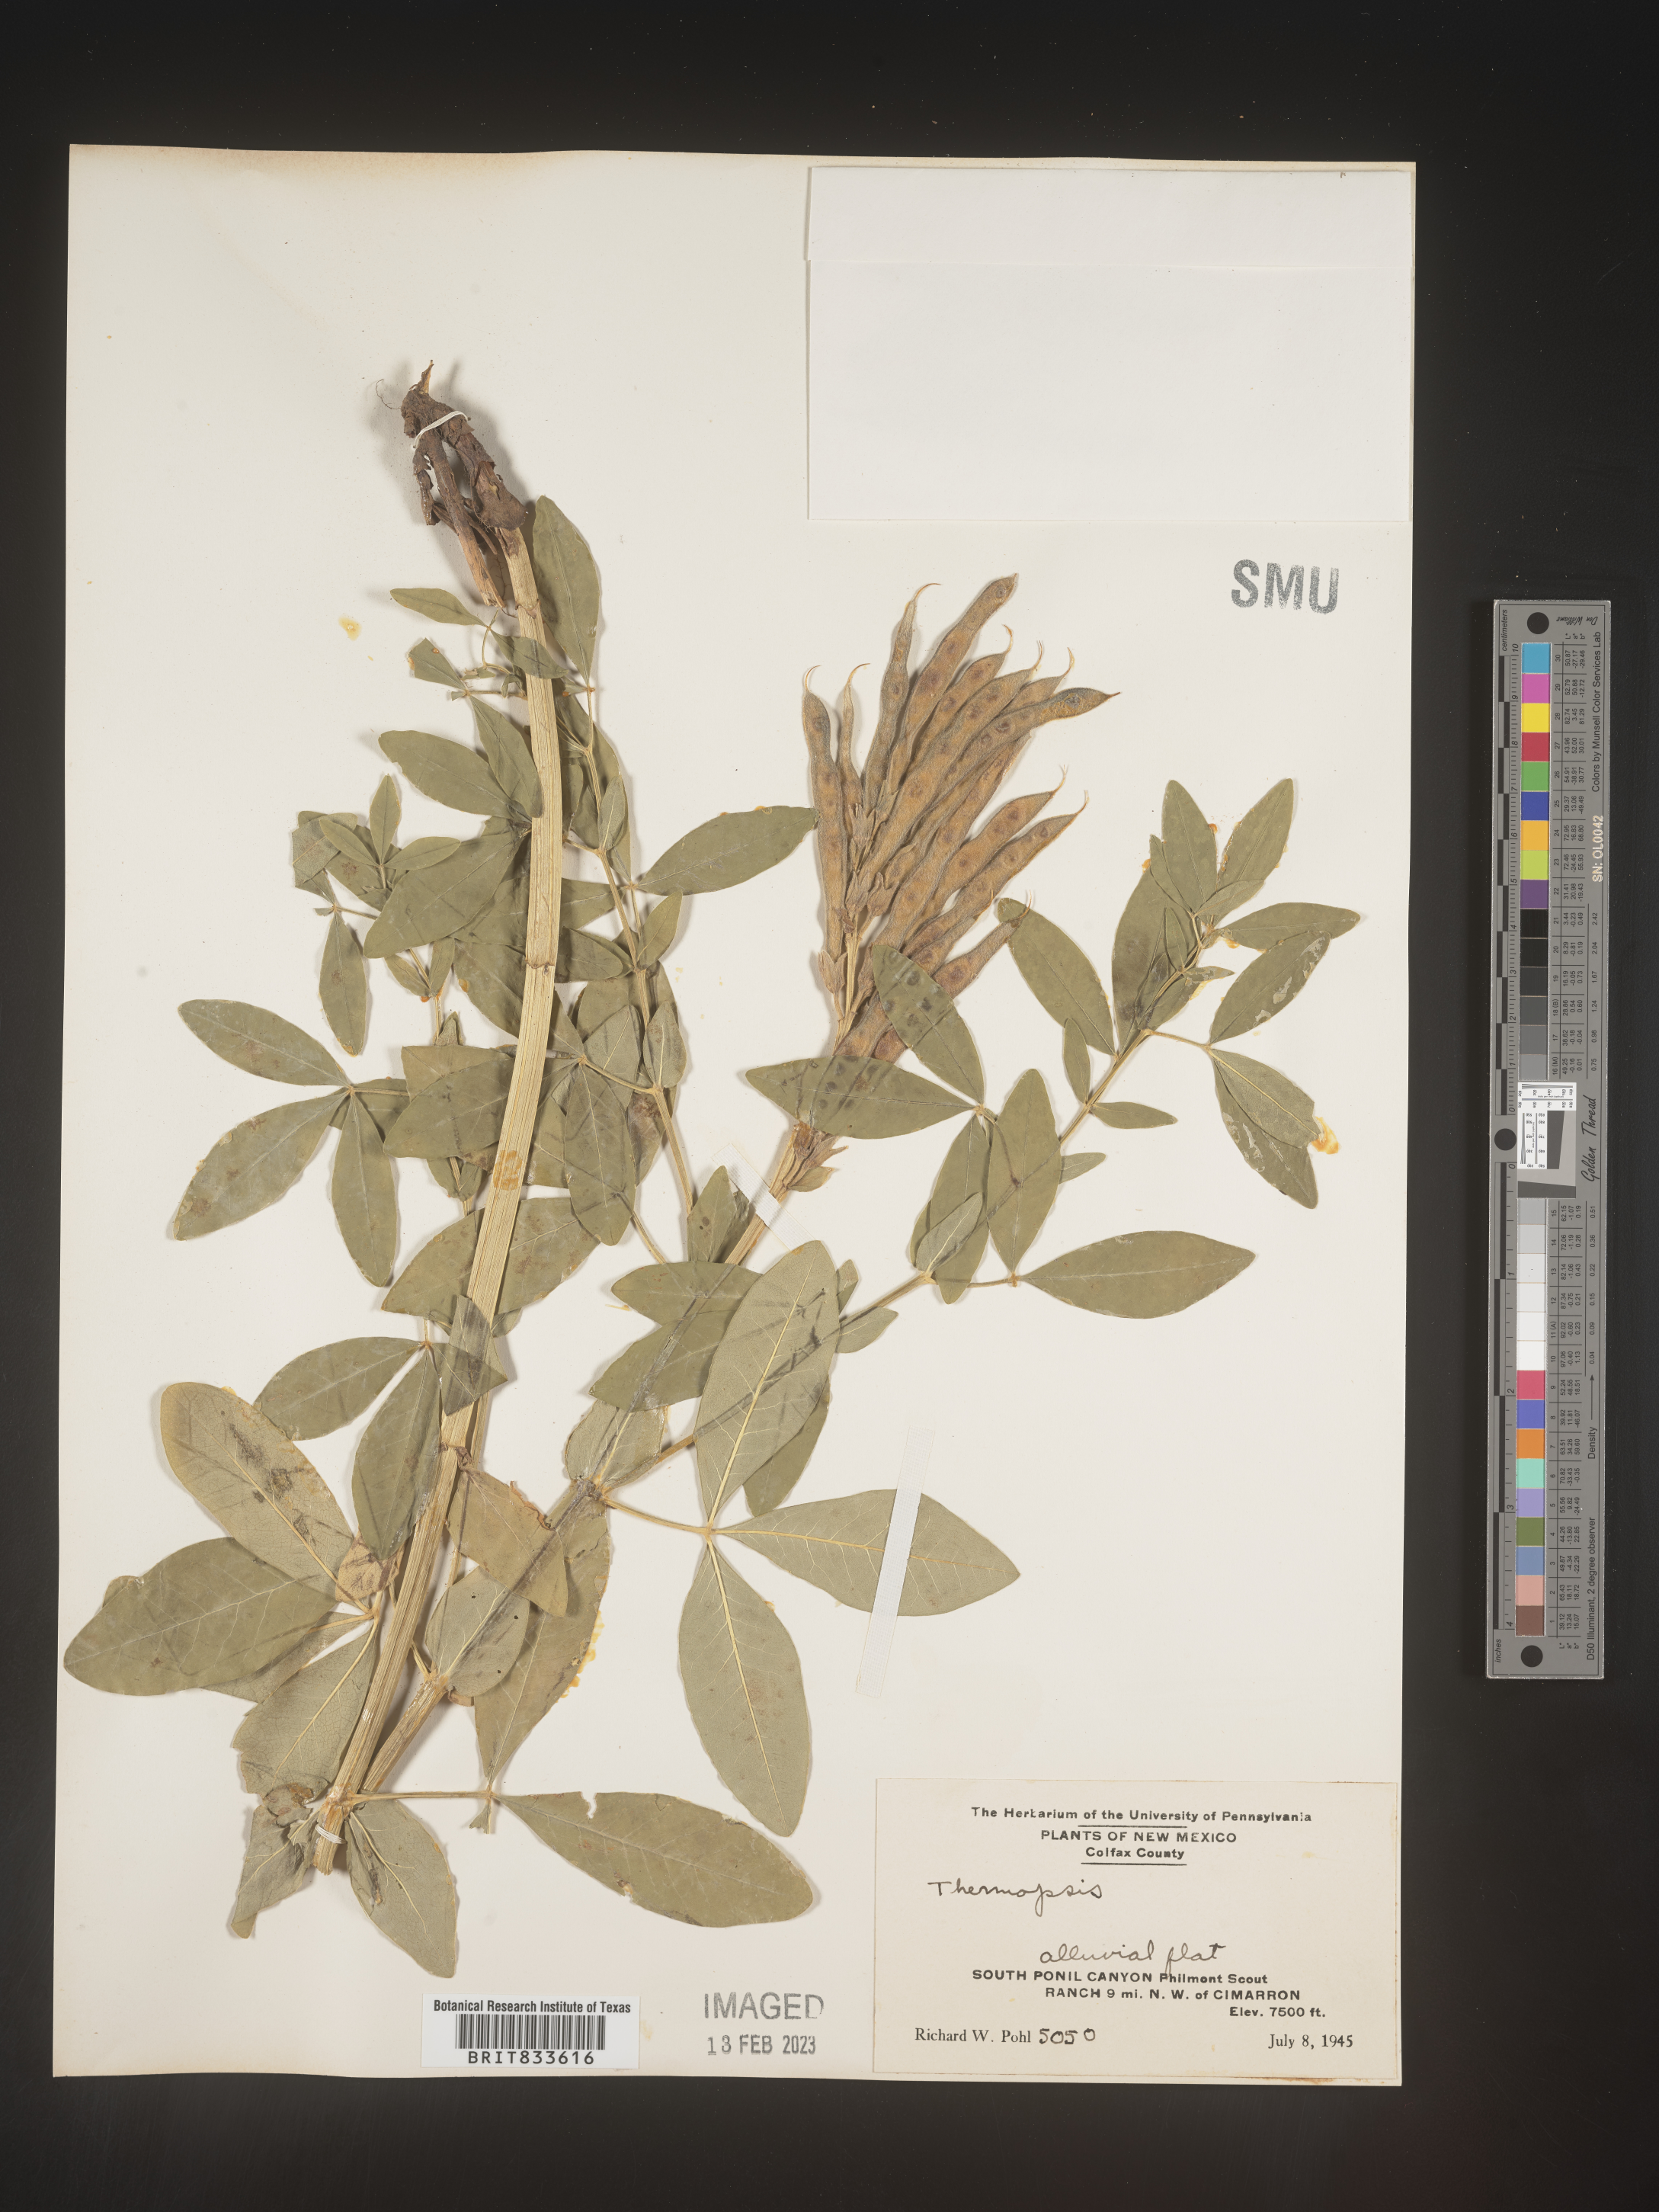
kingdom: Plantae
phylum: Tracheophyta
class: Magnoliopsida
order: Fabales
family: Fabaceae
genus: Thermopsis
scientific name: Thermopsis
